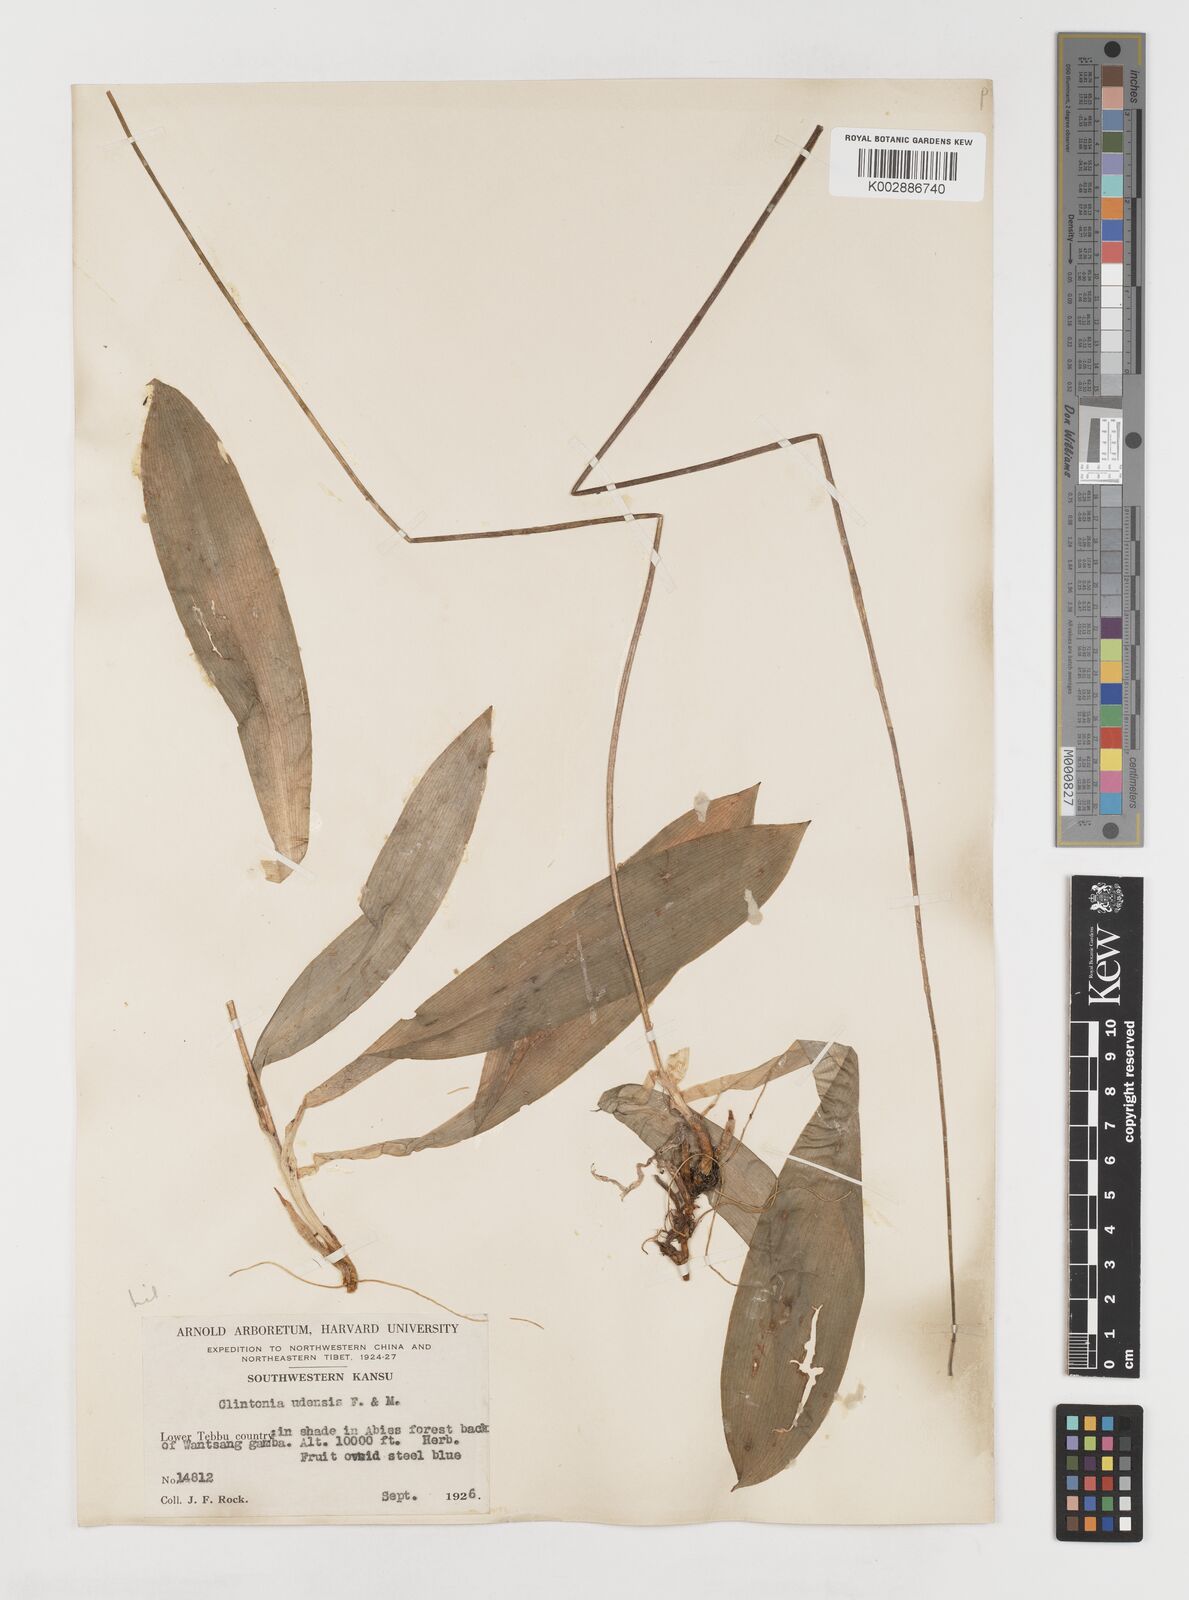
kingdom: Plantae
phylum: Tracheophyta
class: Liliopsida
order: Liliales
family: Liliaceae
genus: Clintonia
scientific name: Clintonia udensis
